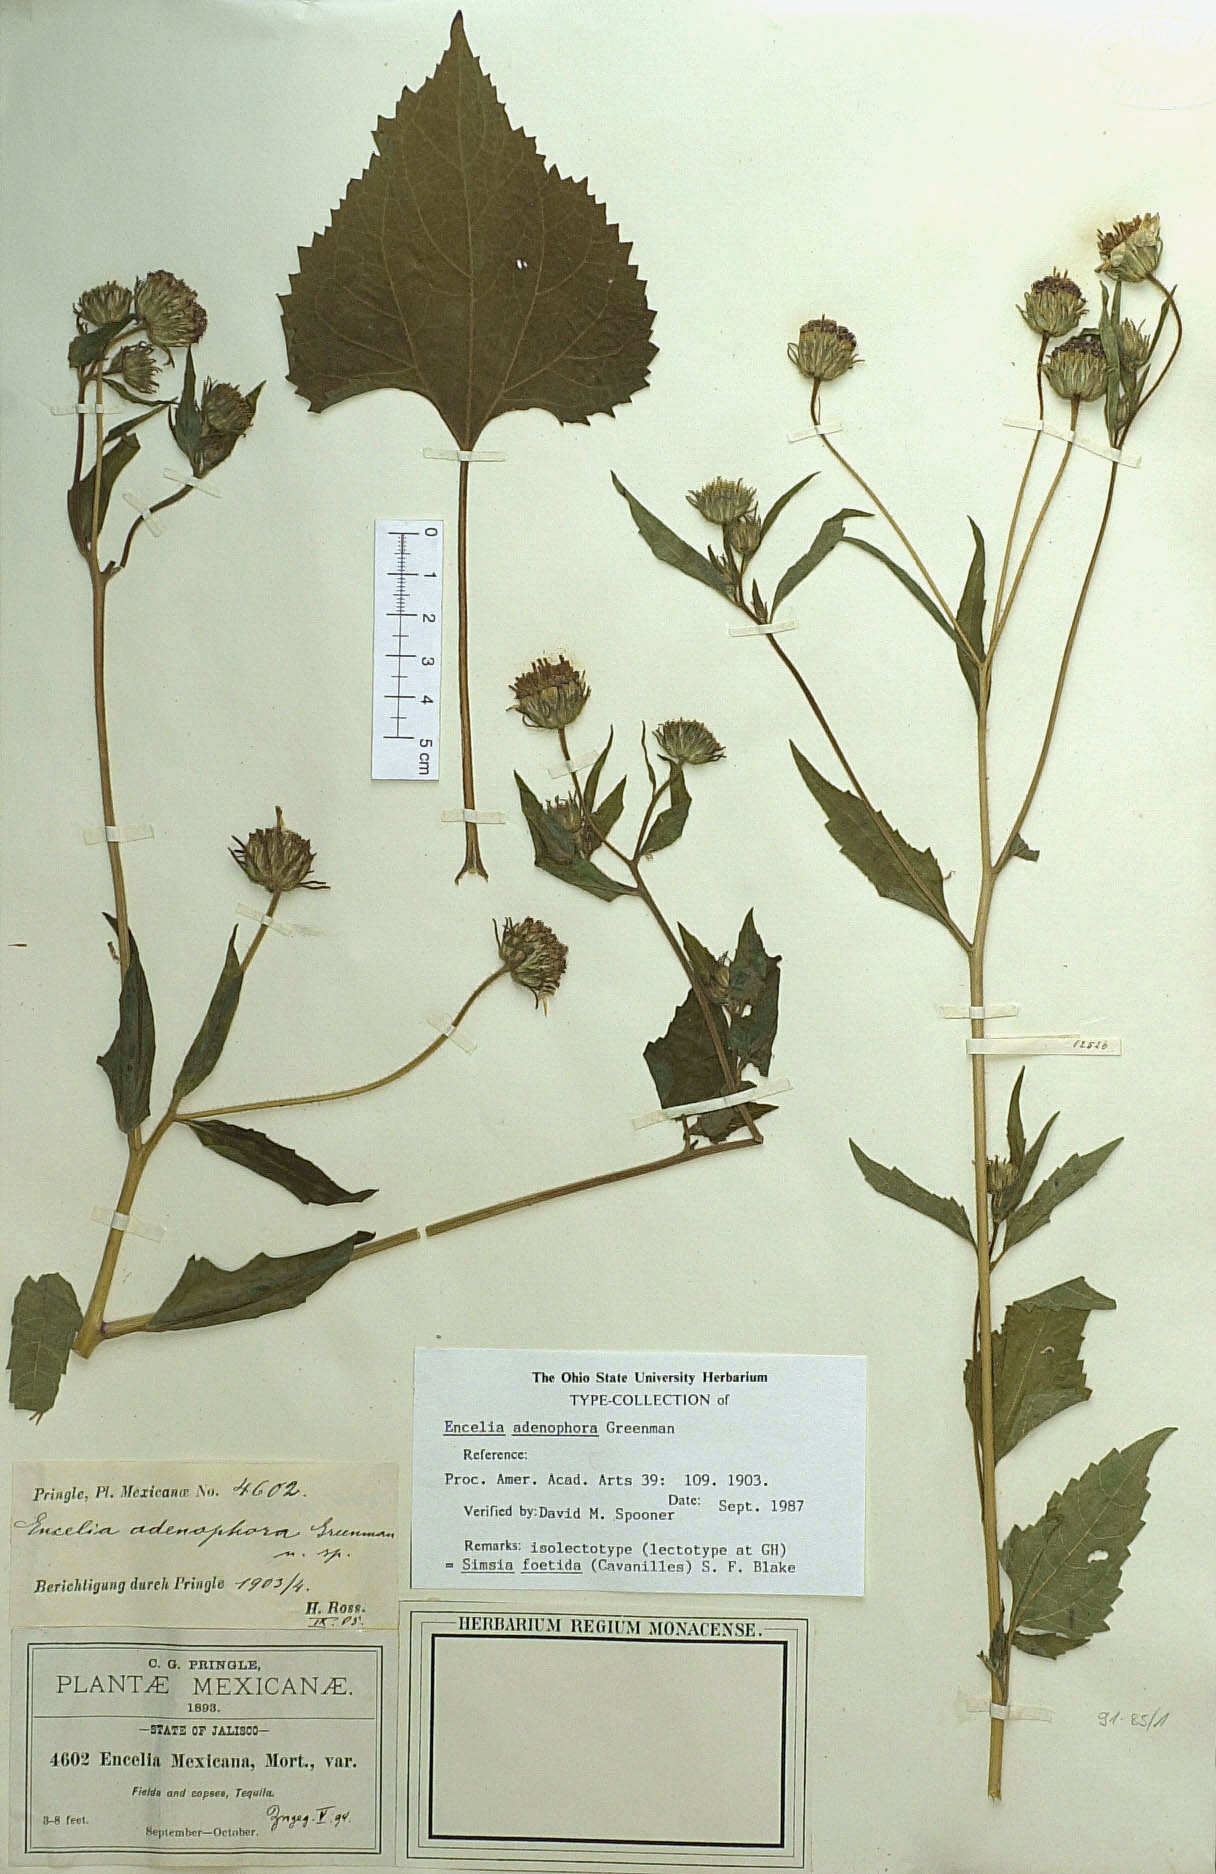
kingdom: Plantae
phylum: Tracheophyta
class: Magnoliopsida
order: Asterales
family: Asteraceae
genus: Simsia
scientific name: Simsia foetida
